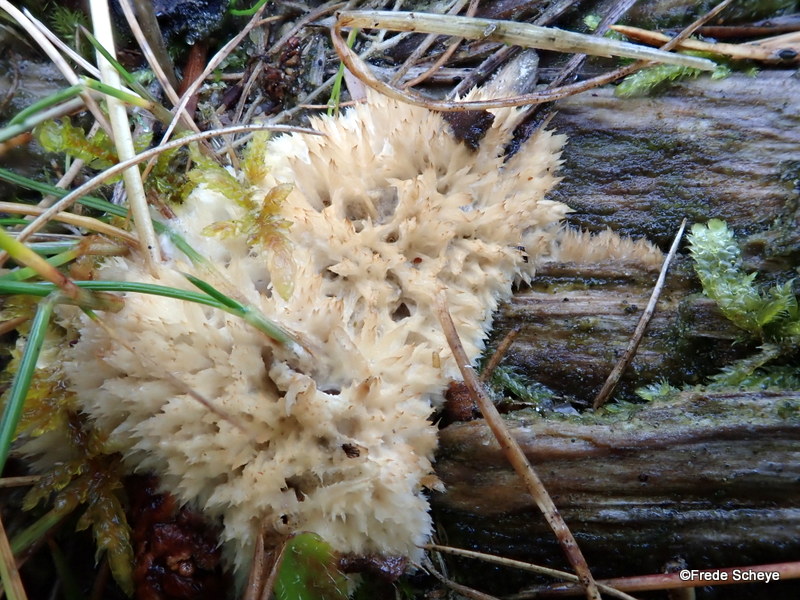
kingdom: Fungi
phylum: Basidiomycota
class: Agaricomycetes
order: Polyporales
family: Dacryobolaceae
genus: Postia
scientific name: Postia ptychogaster
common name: støvende kødporesvamp
